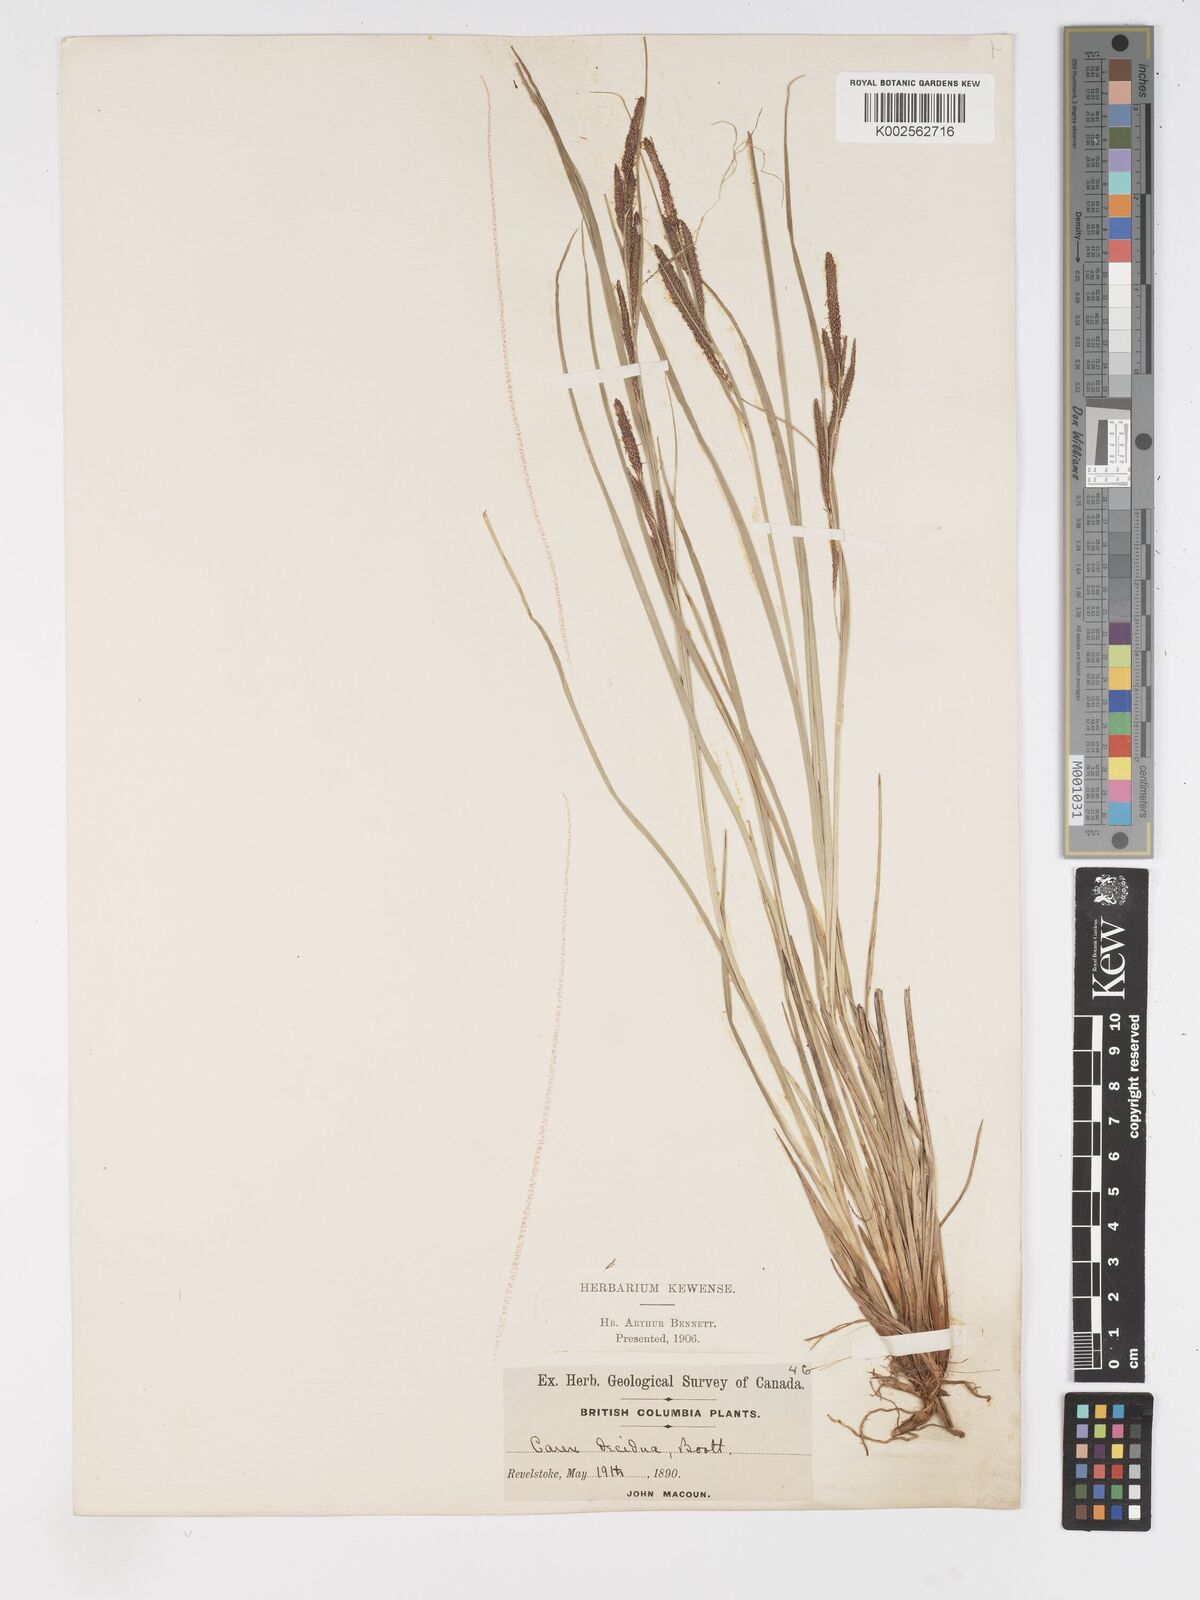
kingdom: Plantae
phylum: Tracheophyta
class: Liliopsida
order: Poales
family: Cyperaceae
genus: Carex
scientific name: Carex nudata
